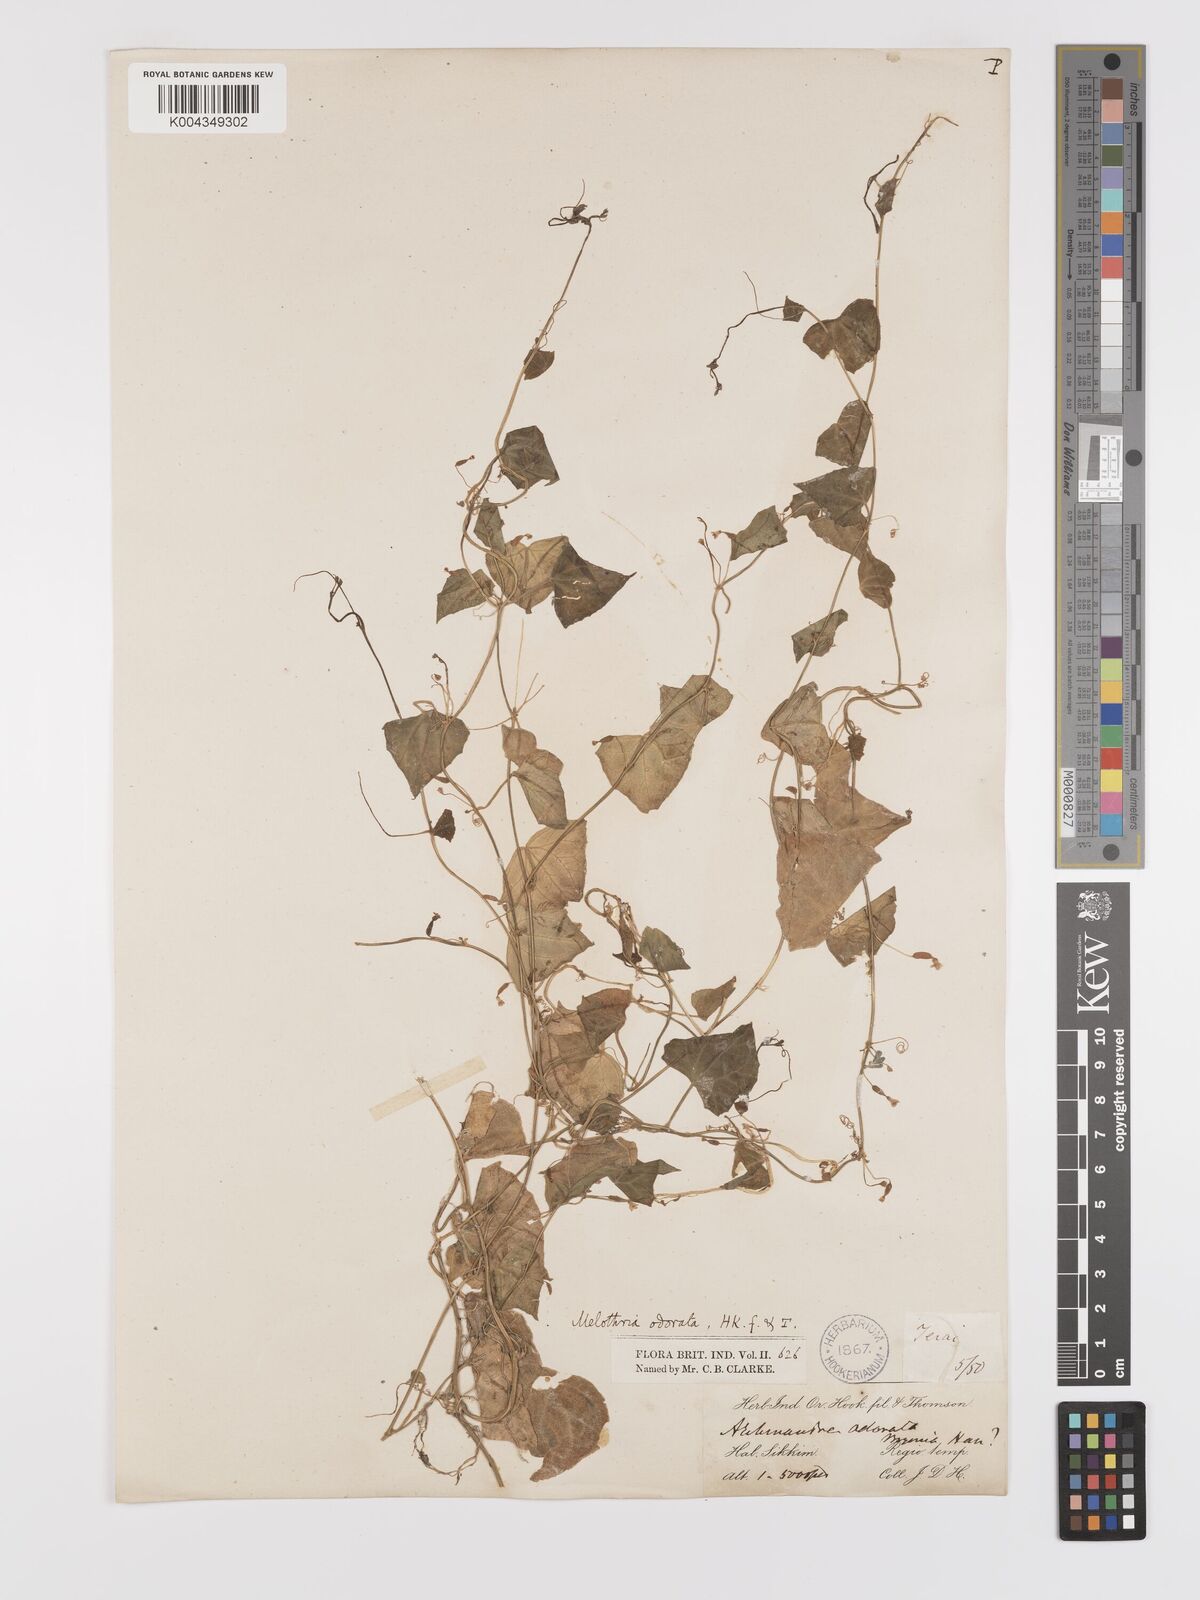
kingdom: Plantae
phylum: Tracheophyta
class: Magnoliopsida
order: Cucurbitales
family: Cucurbitaceae
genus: Zehneria
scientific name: Zehneria odorata
